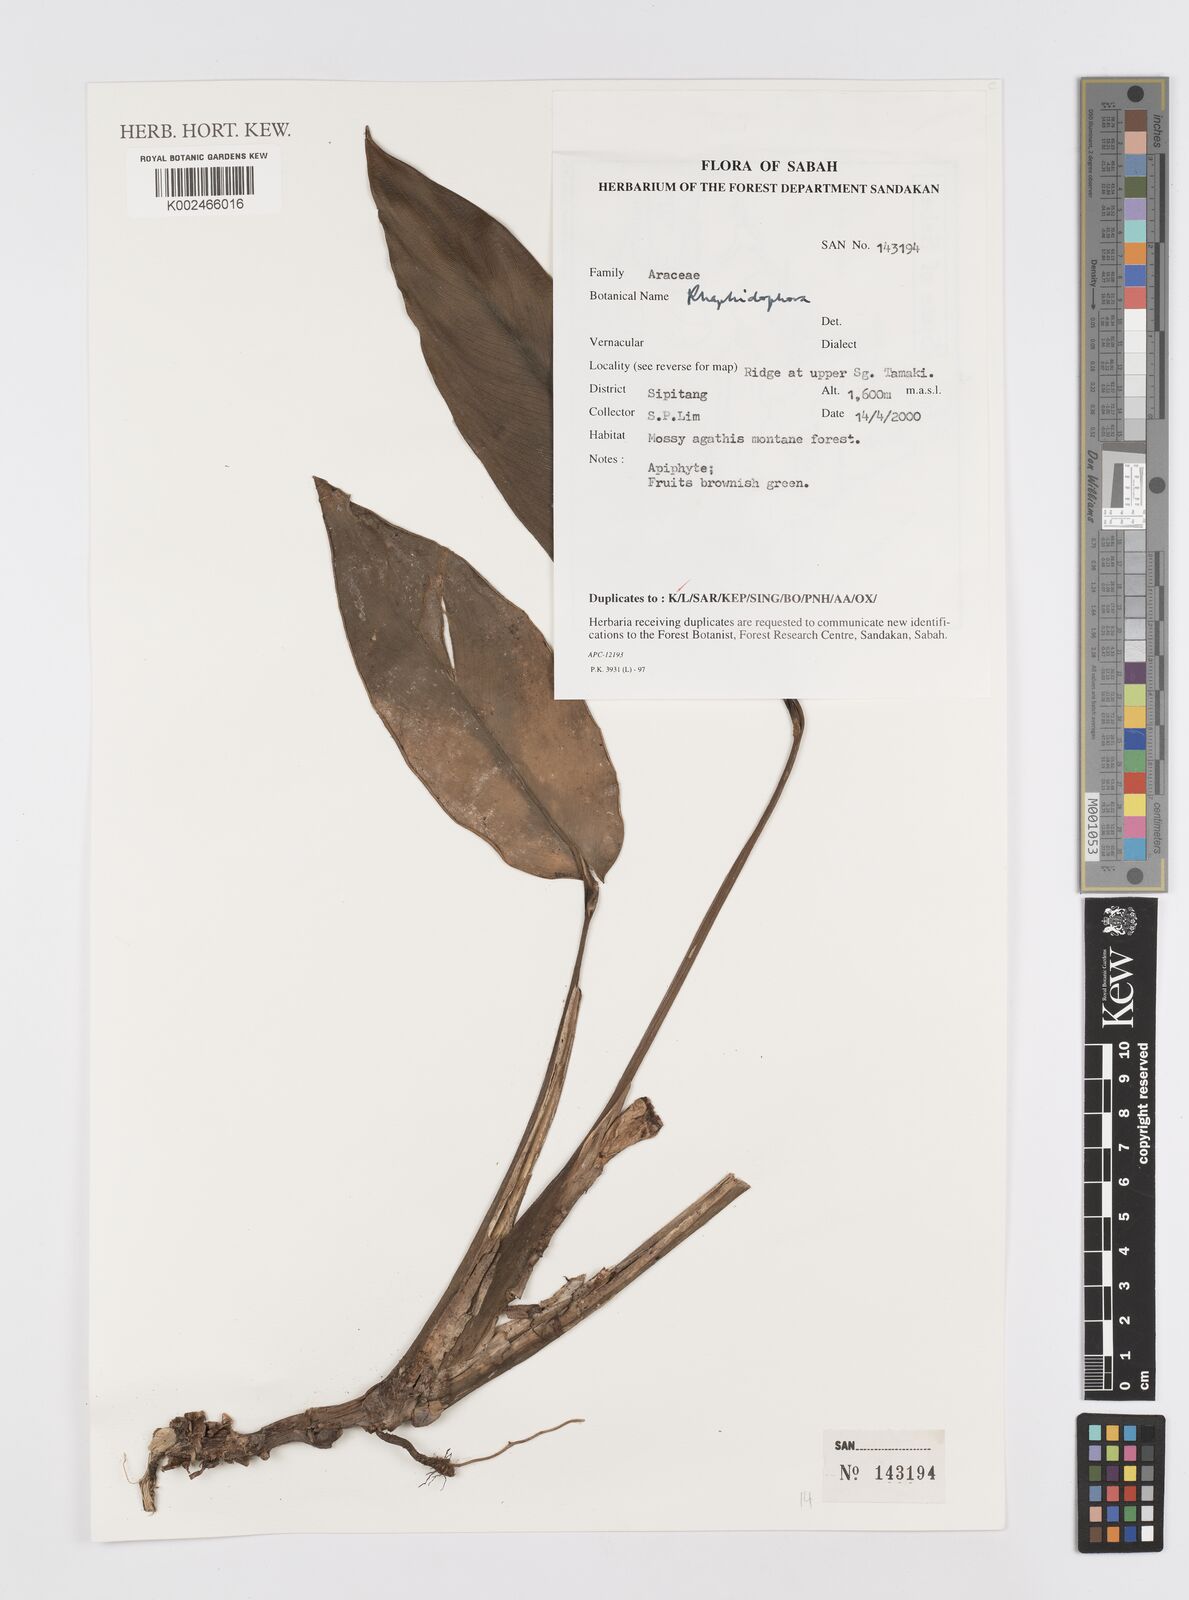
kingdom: Plantae
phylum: Tracheophyta
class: Liliopsida
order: Alismatales
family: Araceae
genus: Rhaphidophora
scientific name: Rhaphidophora
